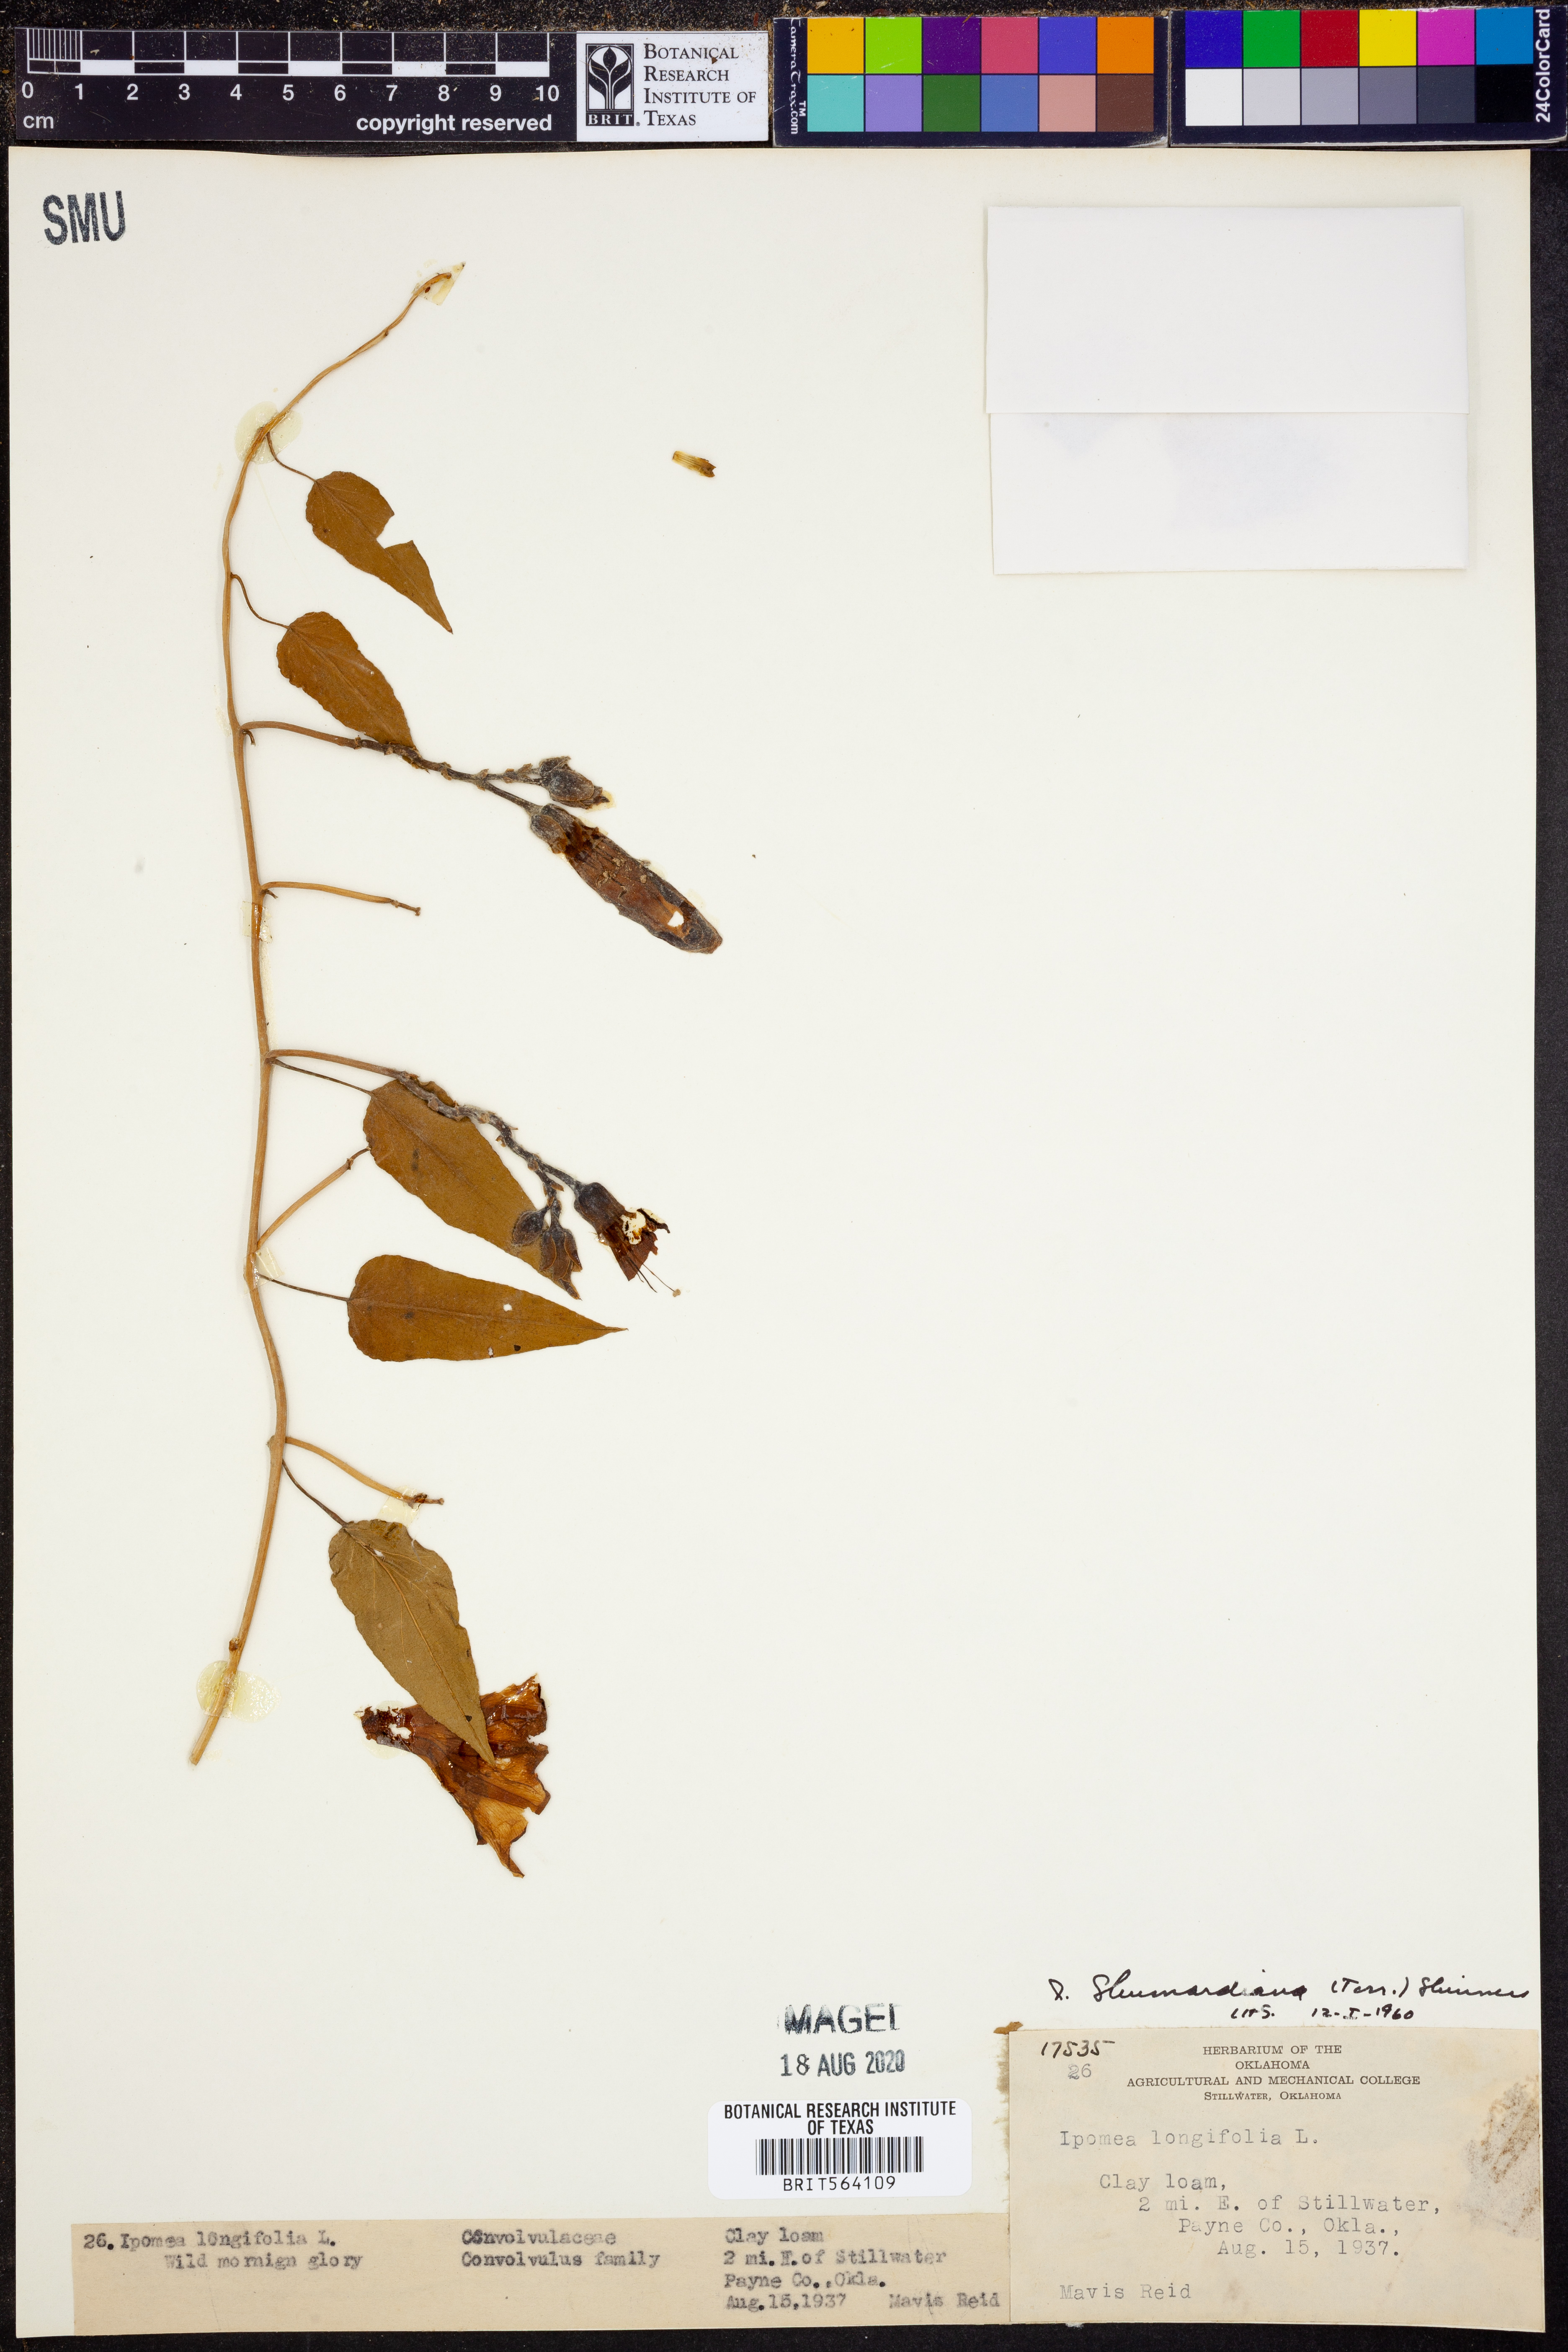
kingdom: Plantae
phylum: Tracheophyta
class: Magnoliopsida
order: Solanales
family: Convolvulaceae
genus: Ipomoea
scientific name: Ipomoea shumardiana
